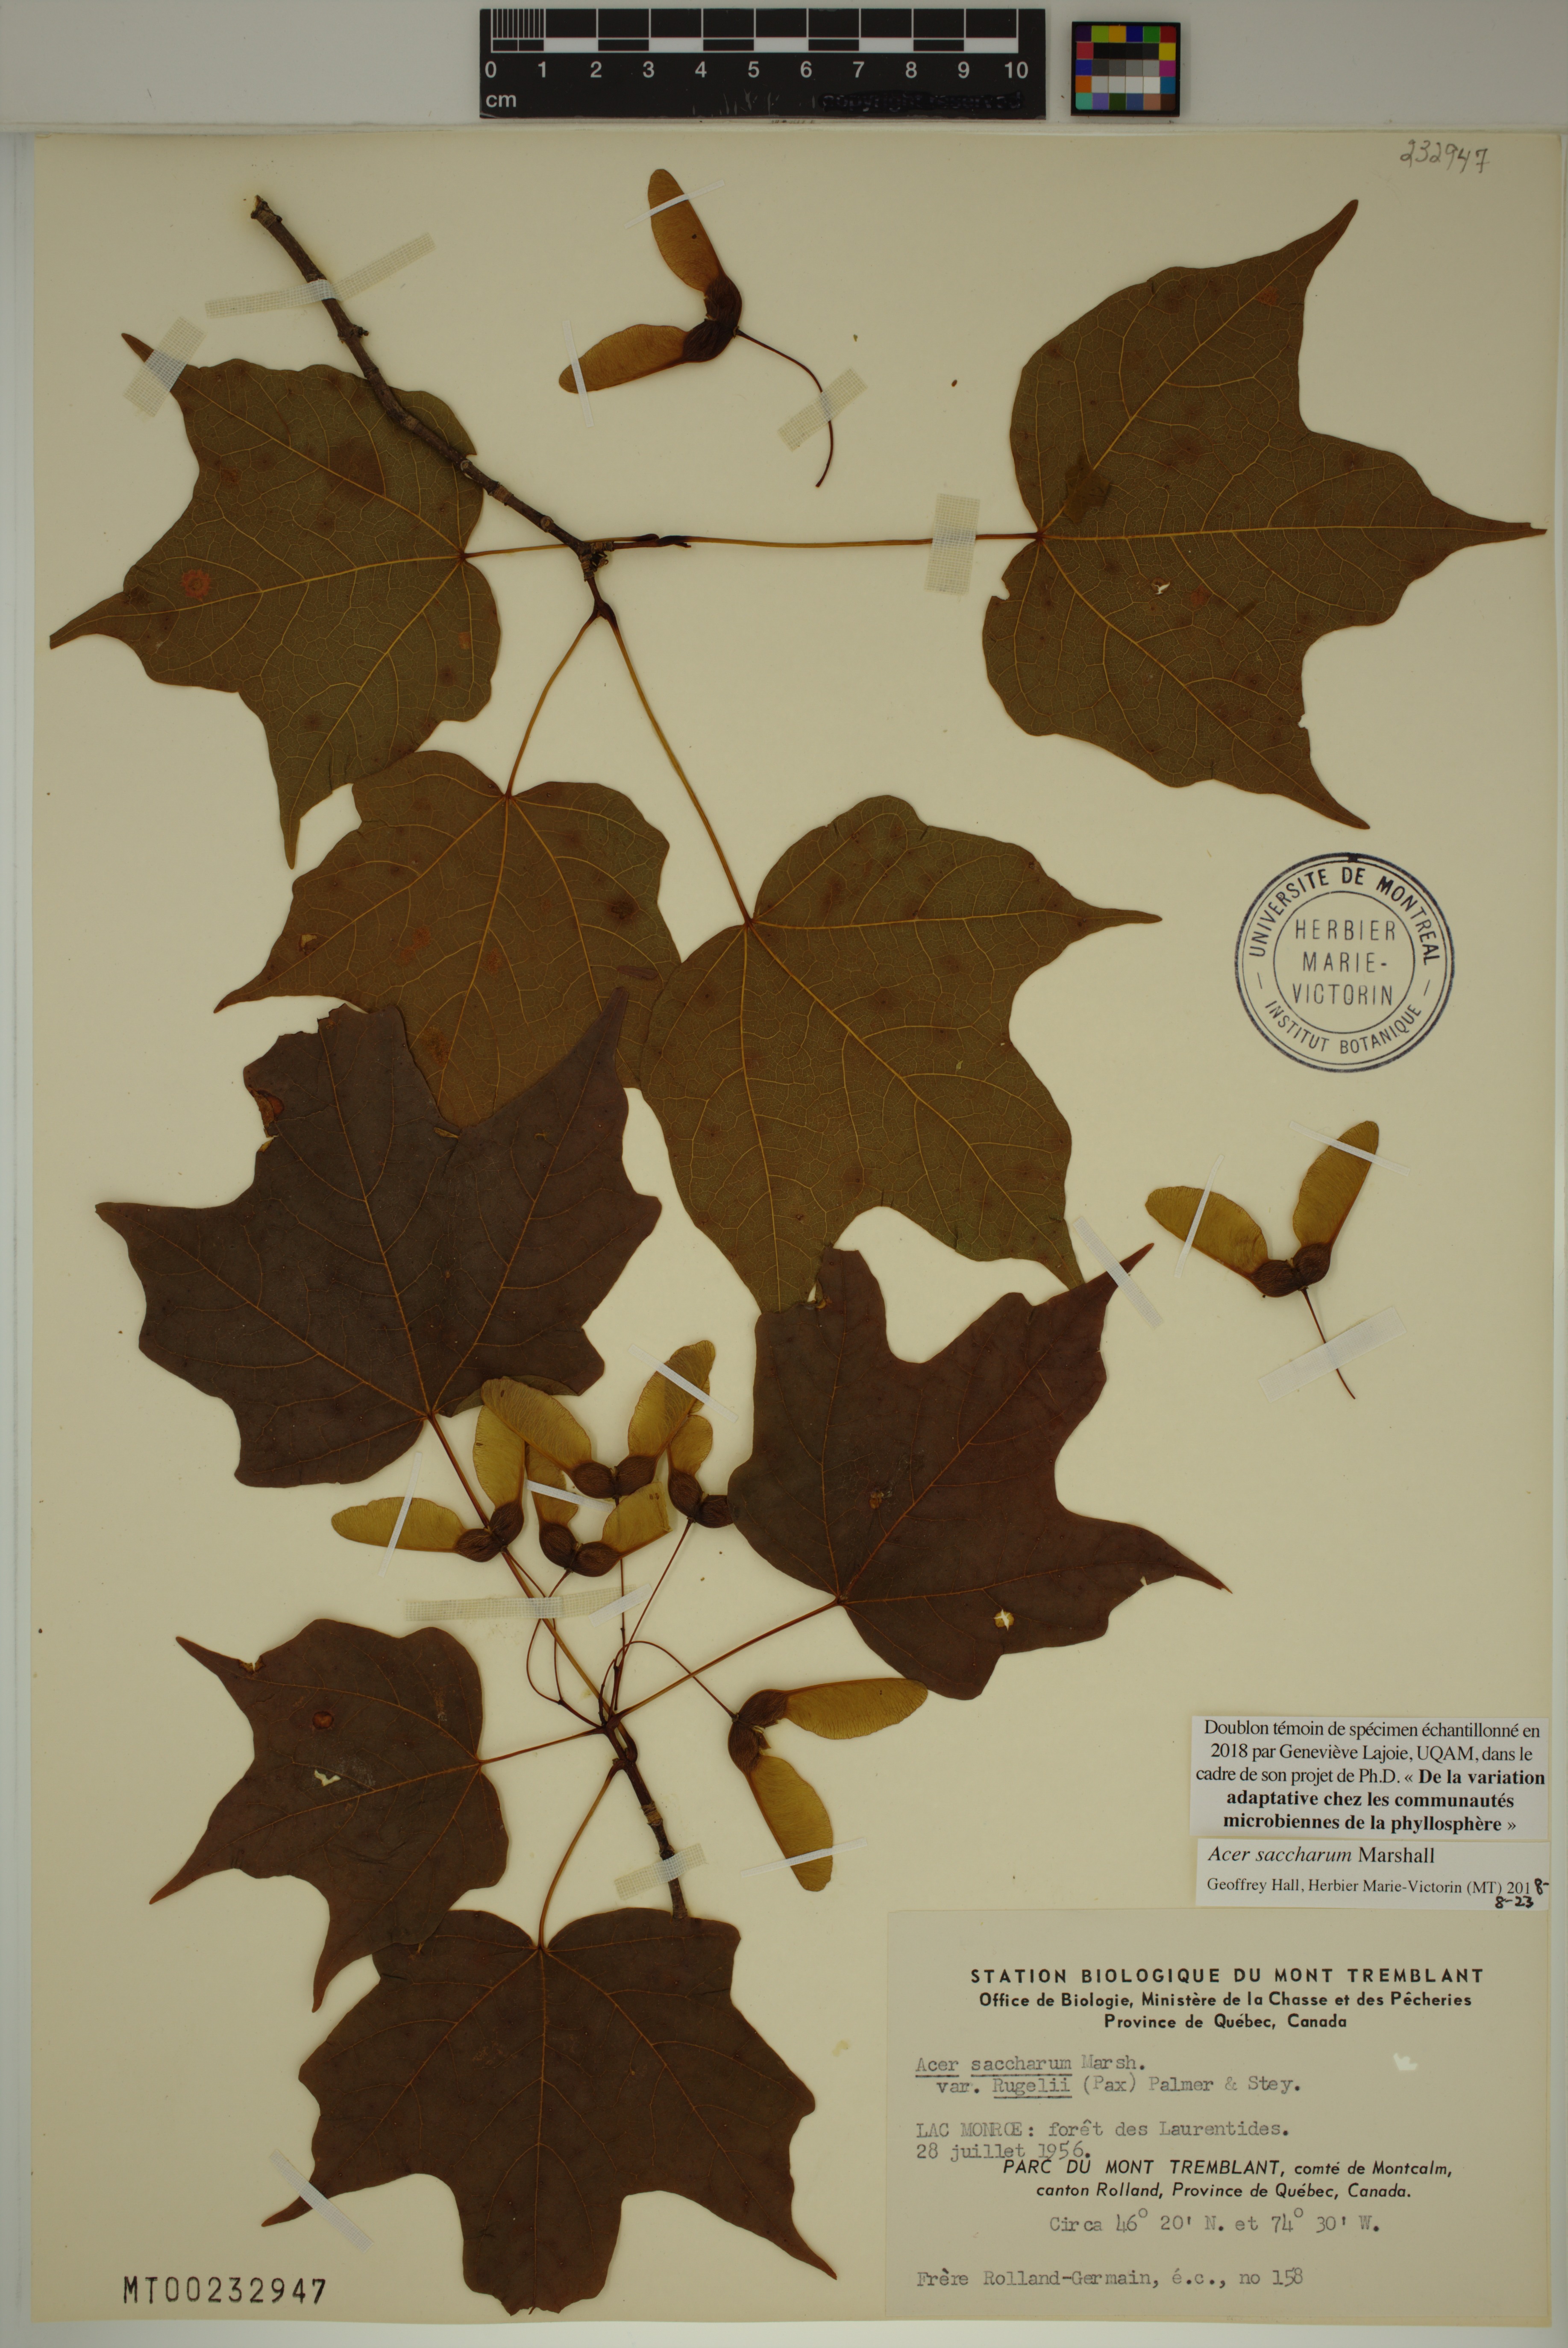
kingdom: Plantae
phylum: Tracheophyta
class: Magnoliopsida
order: Sapindales
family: Sapindaceae
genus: Acer
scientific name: Acer saccharum
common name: Sugar maple
